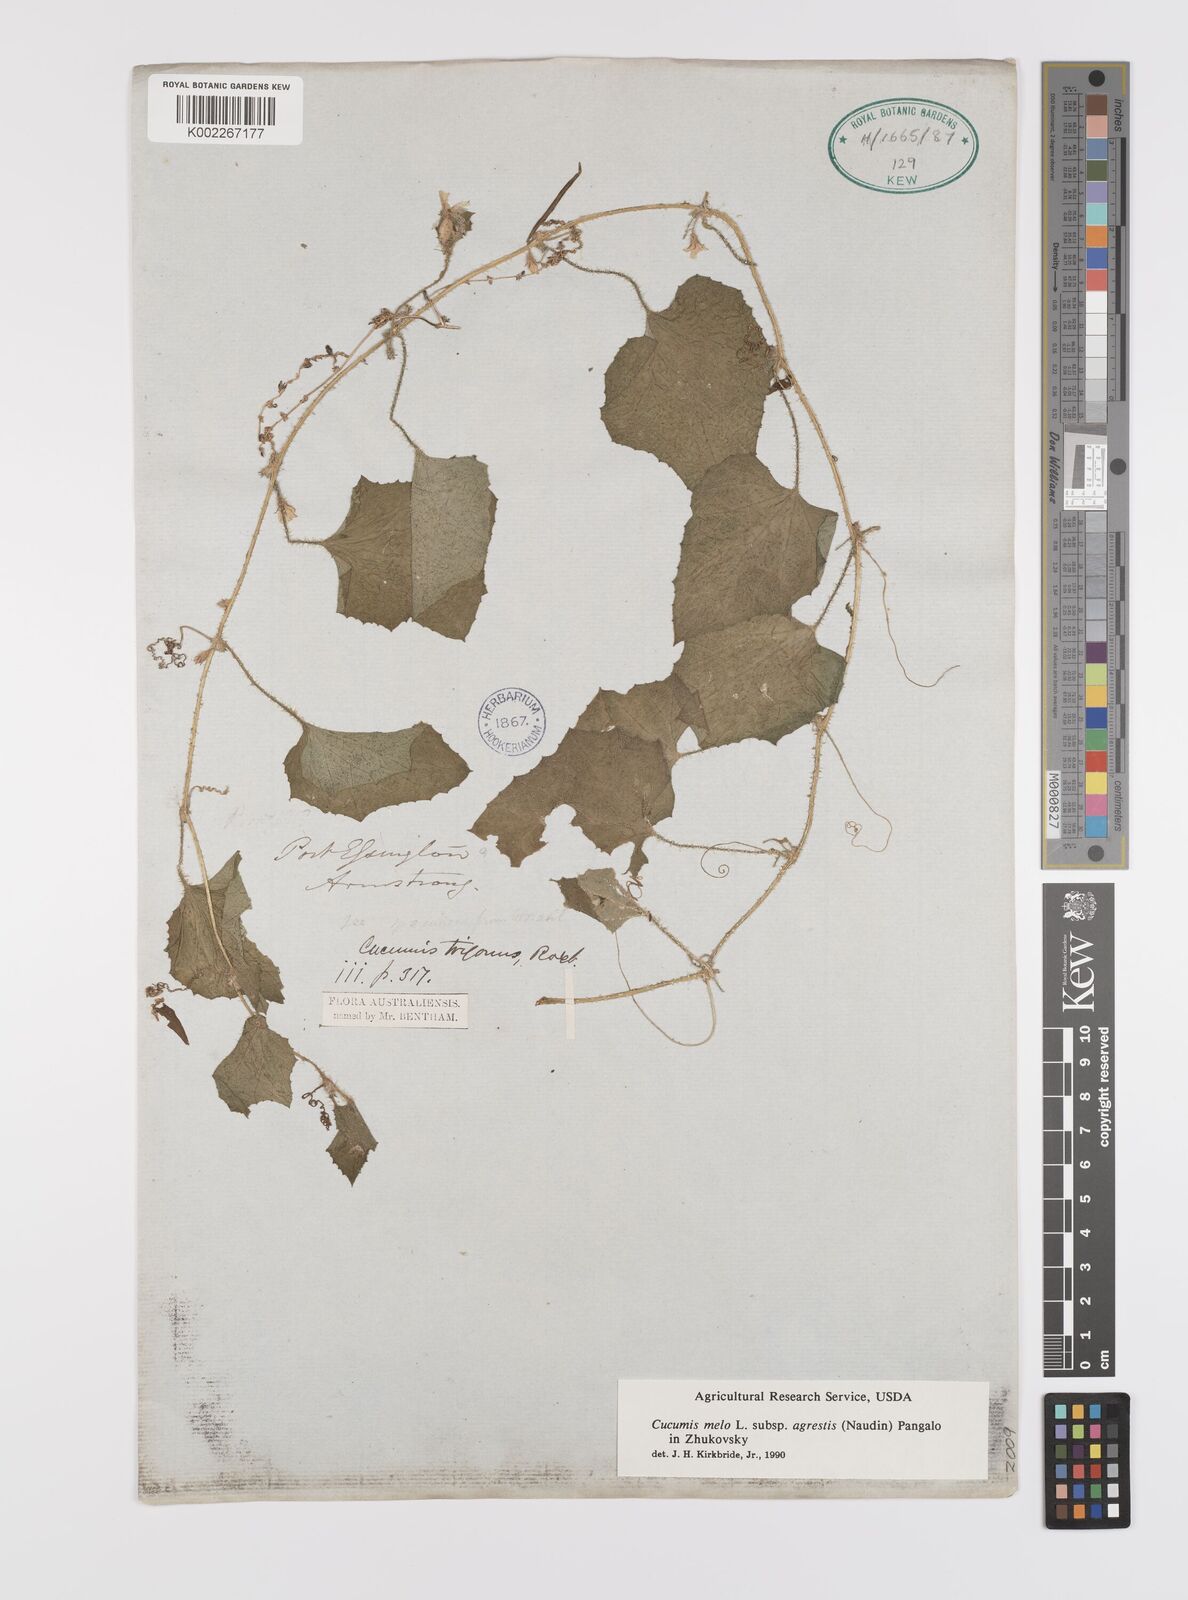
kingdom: Plantae
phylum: Tracheophyta
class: Magnoliopsida
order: Cucurbitales
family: Cucurbitaceae
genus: Cucumis
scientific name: Cucumis melo
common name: Melon
